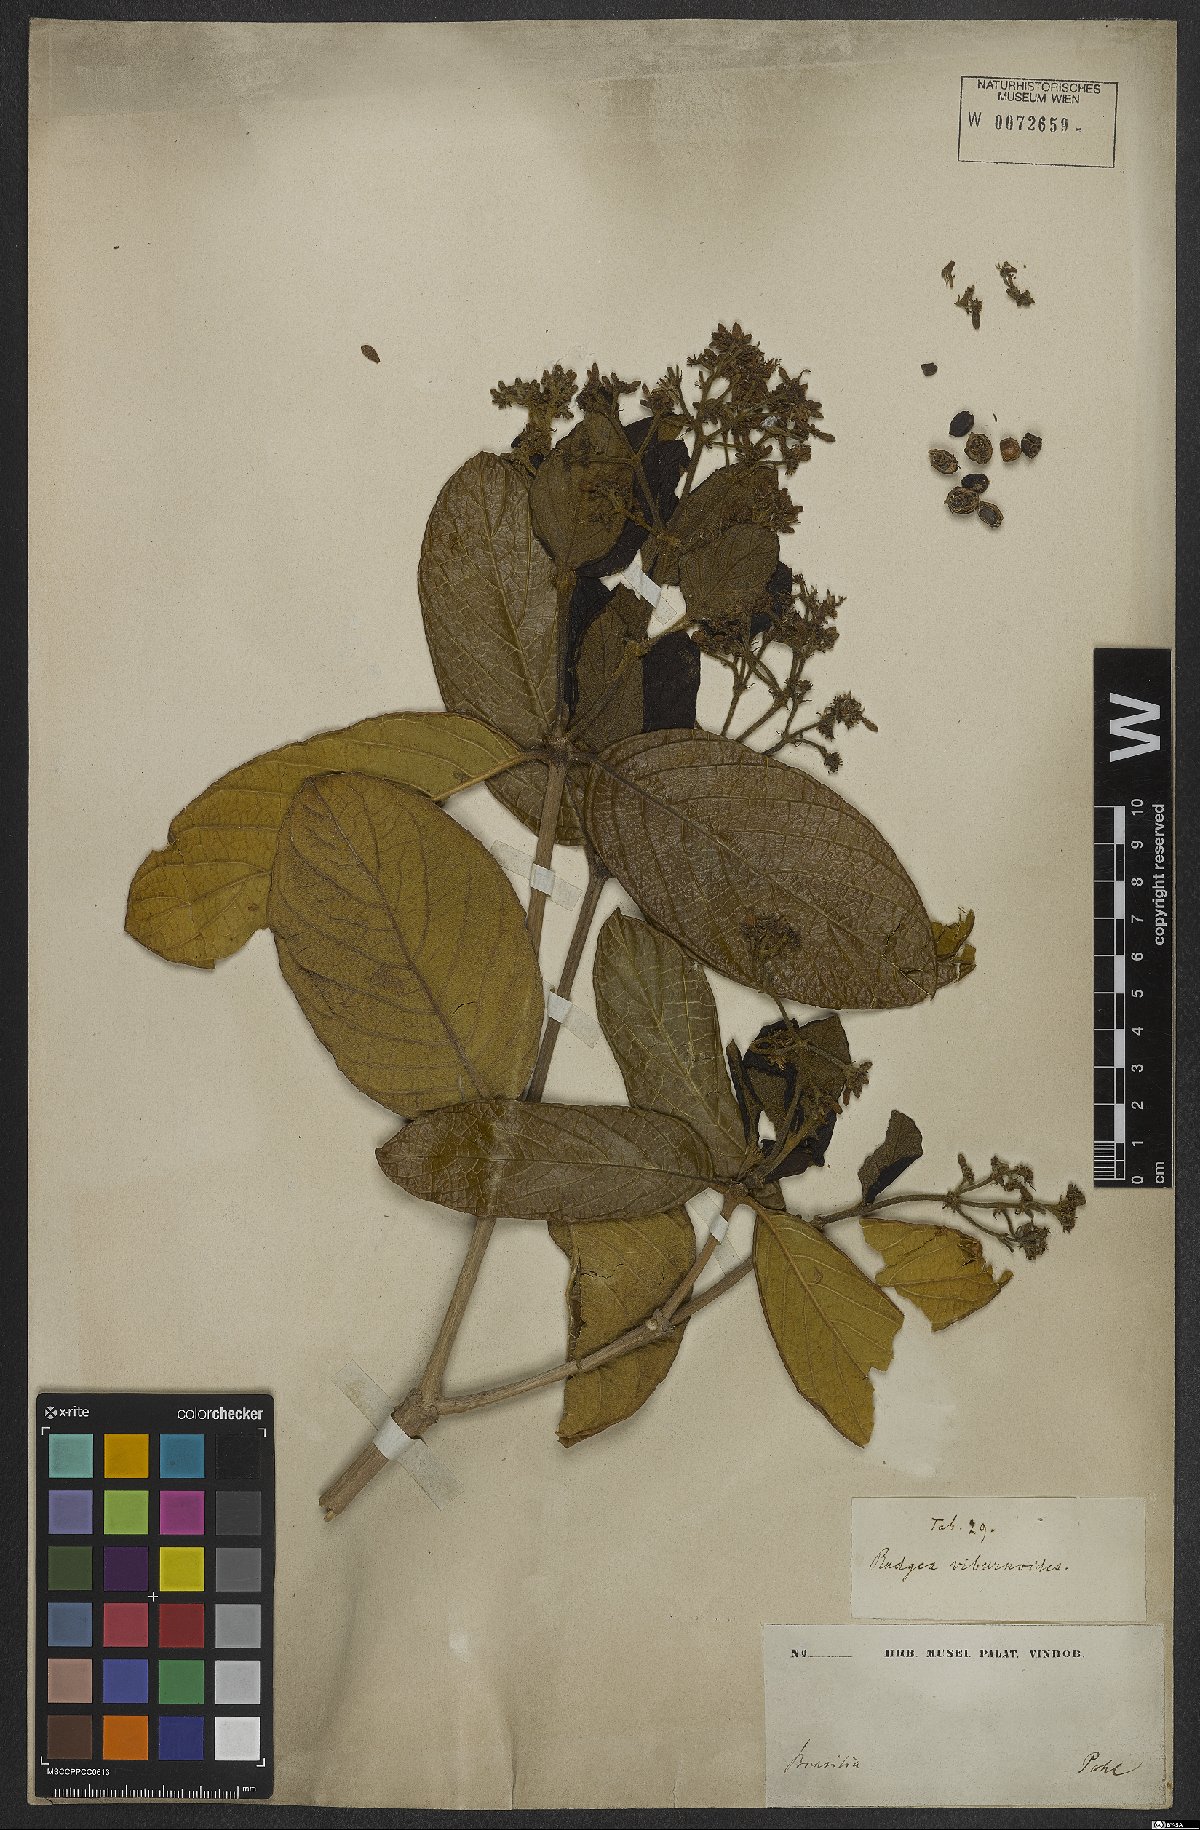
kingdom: Plantae
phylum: Tracheophyta
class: Magnoliopsida
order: Gentianales
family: Rubiaceae
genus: Rudgea
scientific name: Rudgea viburnoides
